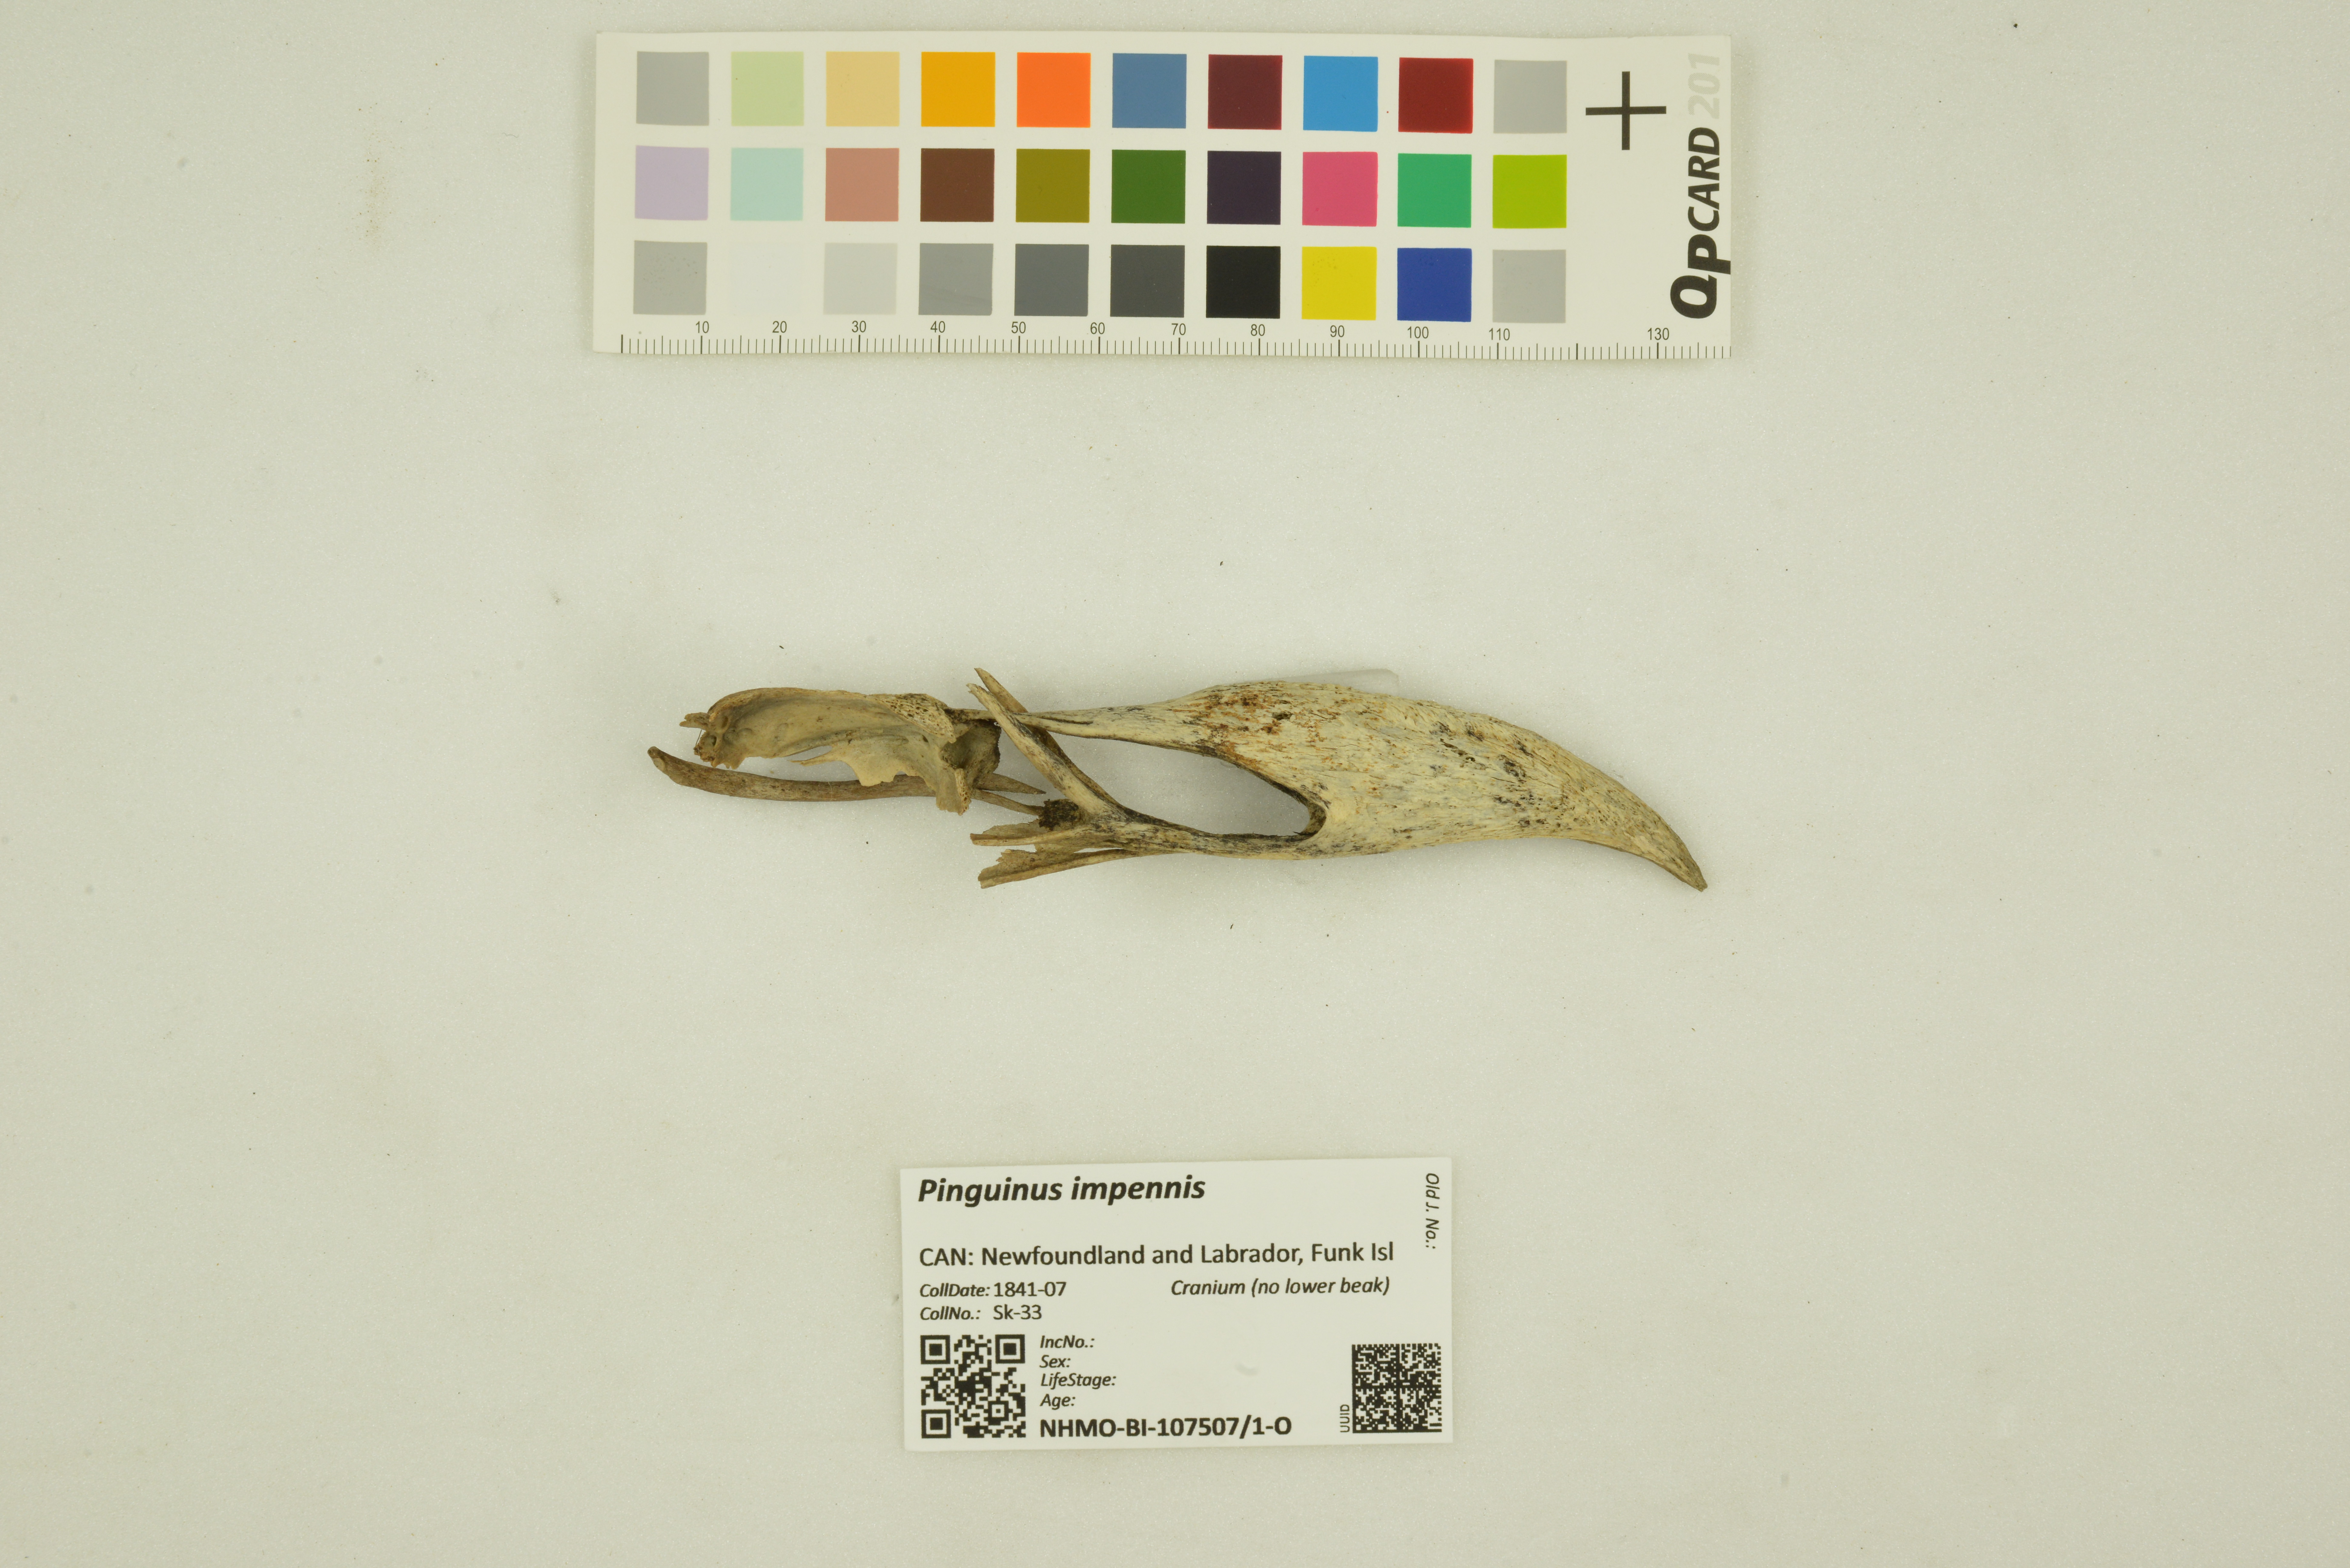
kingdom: Animalia
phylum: Chordata
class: Aves
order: Charadriiformes
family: Alcidae
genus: Pinguinus
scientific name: Pinguinus impennis
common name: Great auk
